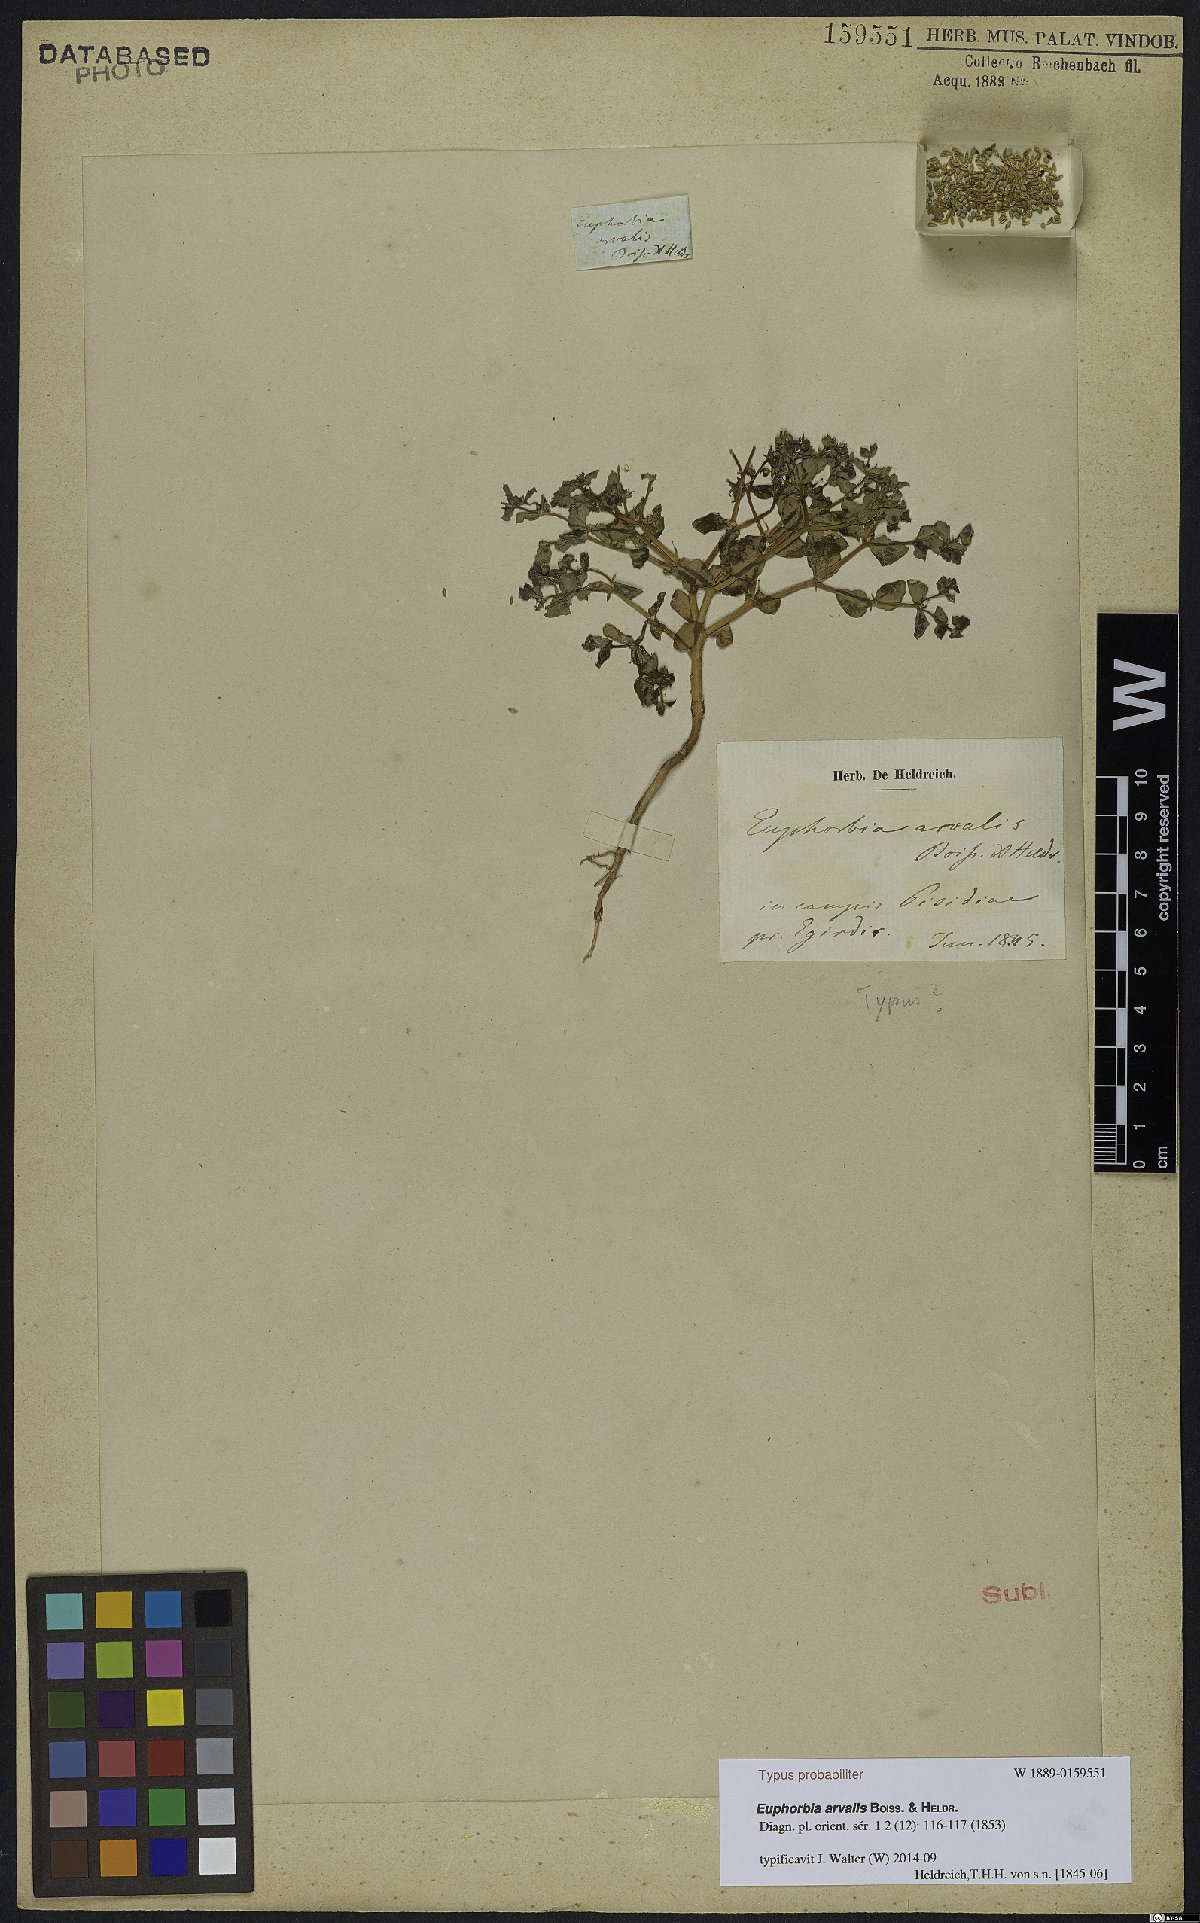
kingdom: Plantae
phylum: Tracheophyta
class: Magnoliopsida
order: Malpighiales
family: Euphorbiaceae
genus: Euphorbia
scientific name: Euphorbia arvalis
